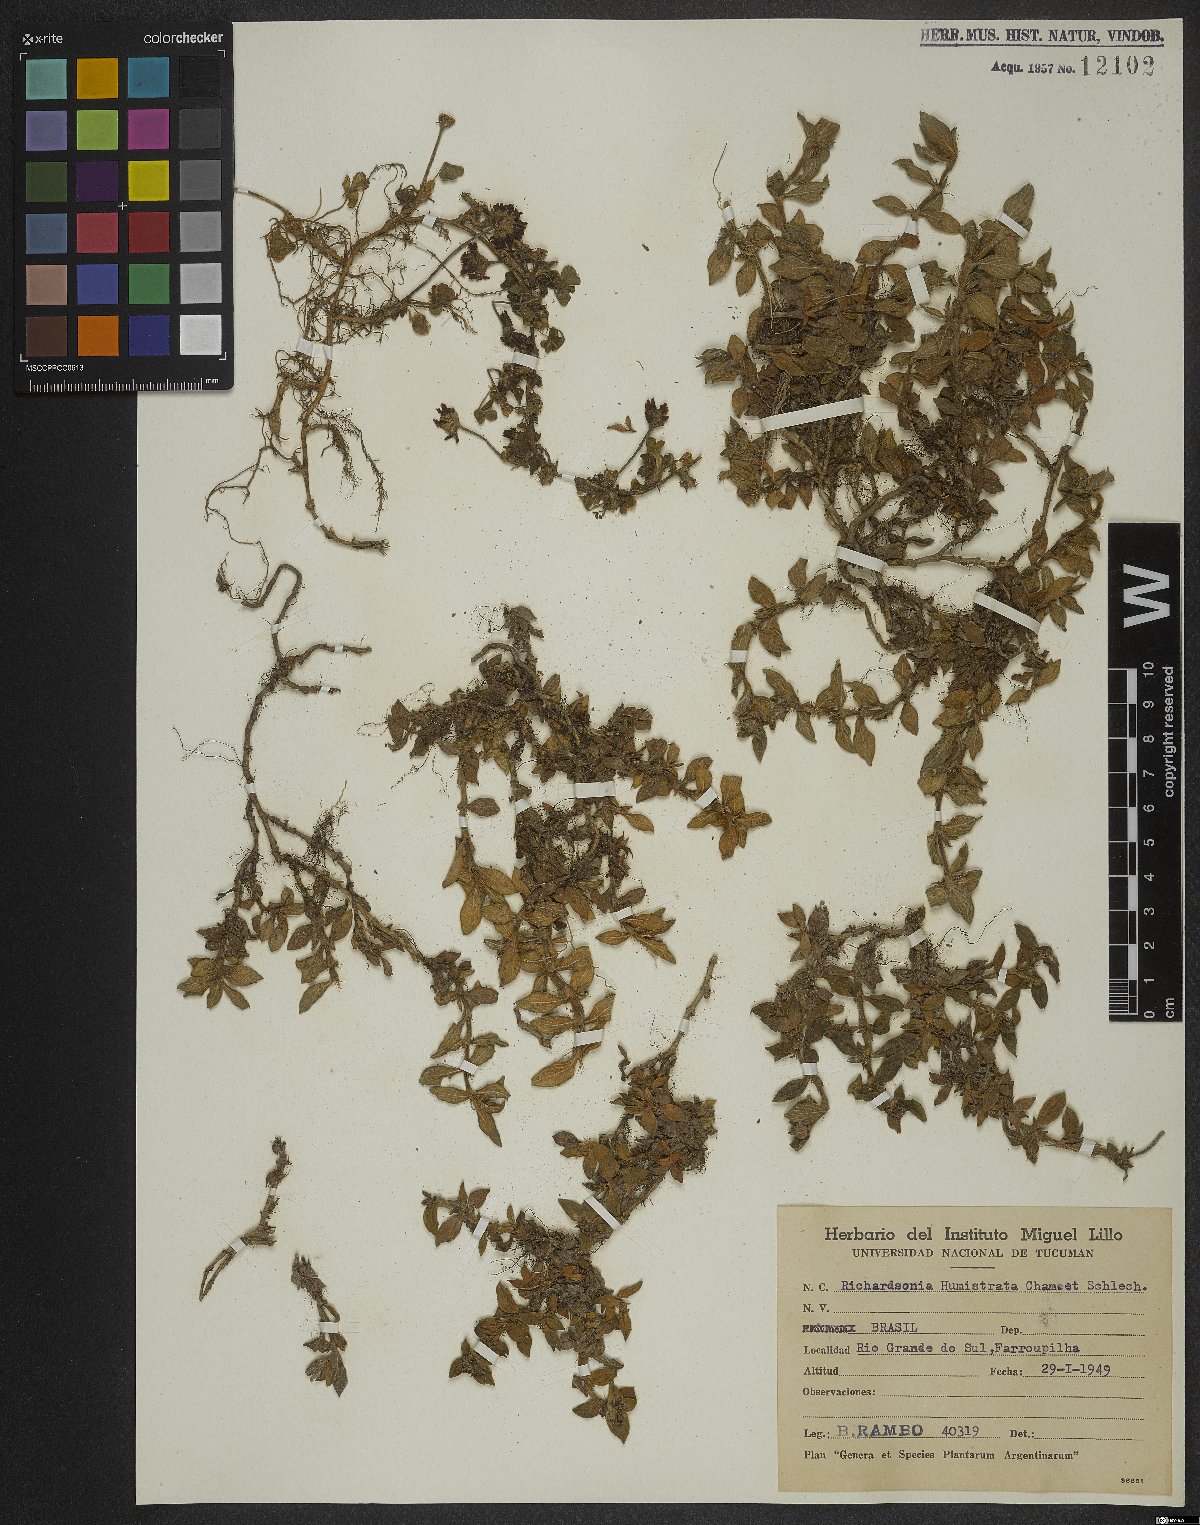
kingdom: Plantae
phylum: Tracheophyta
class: Magnoliopsida
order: Gentianales
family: Rubiaceae
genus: Richardia
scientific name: Richardia humistrata
